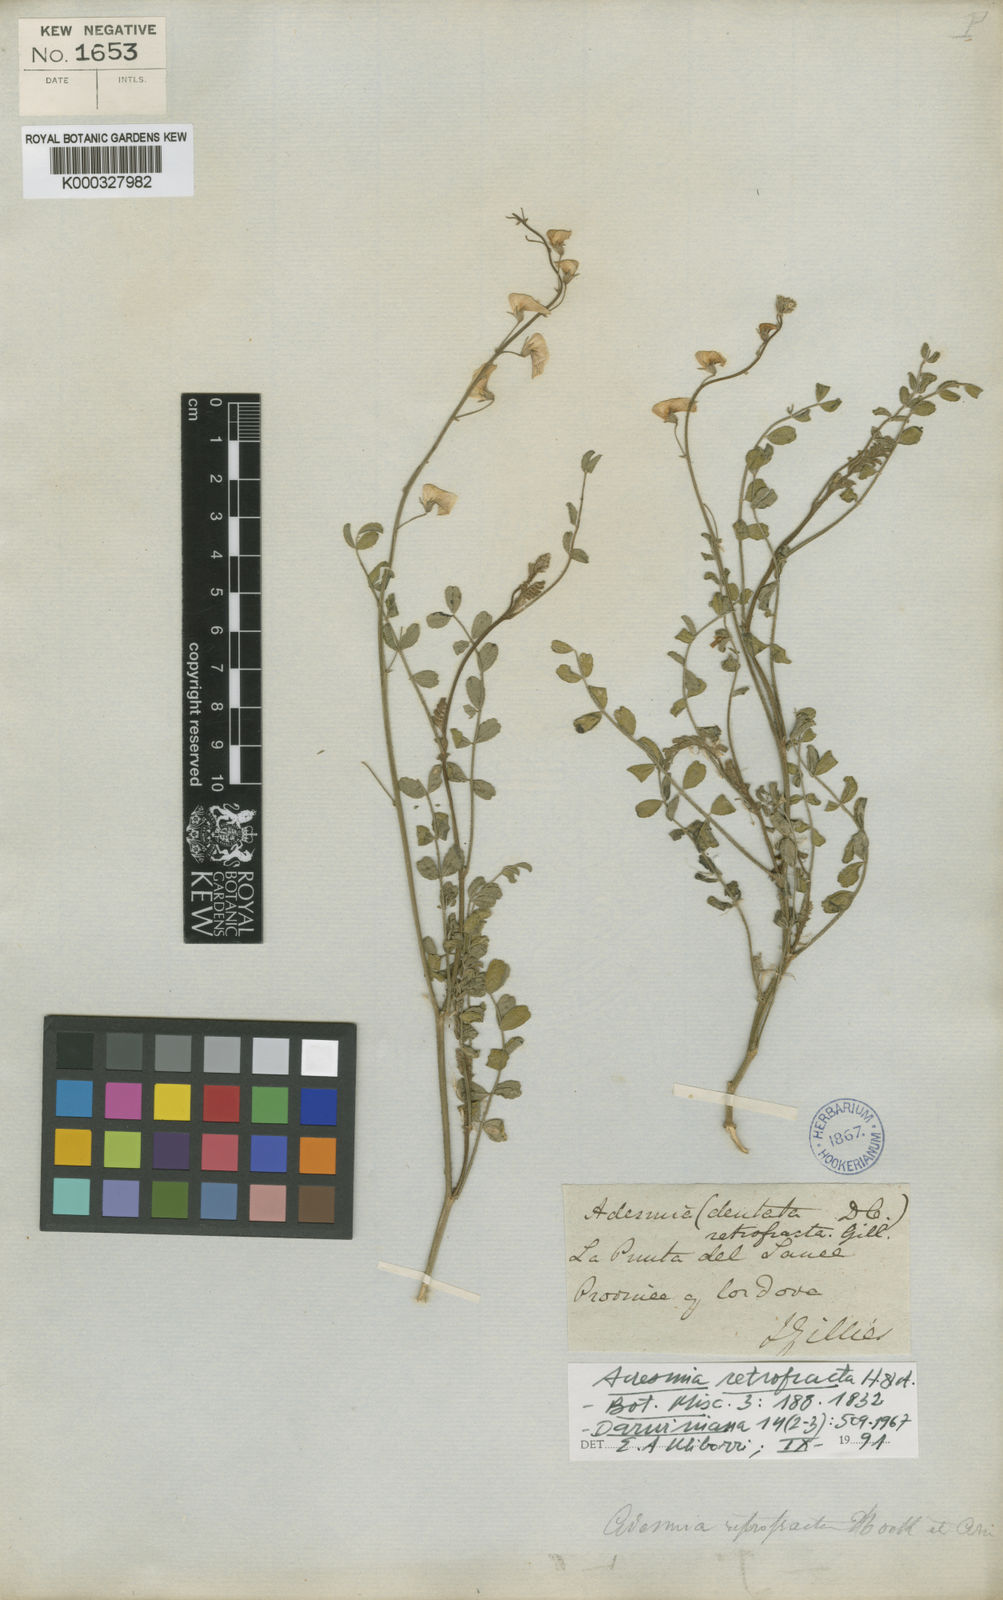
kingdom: Plantae
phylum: Tracheophyta
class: Magnoliopsida
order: Fabales
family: Fabaceae
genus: Adesmia
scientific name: Adesmia retrofracta
